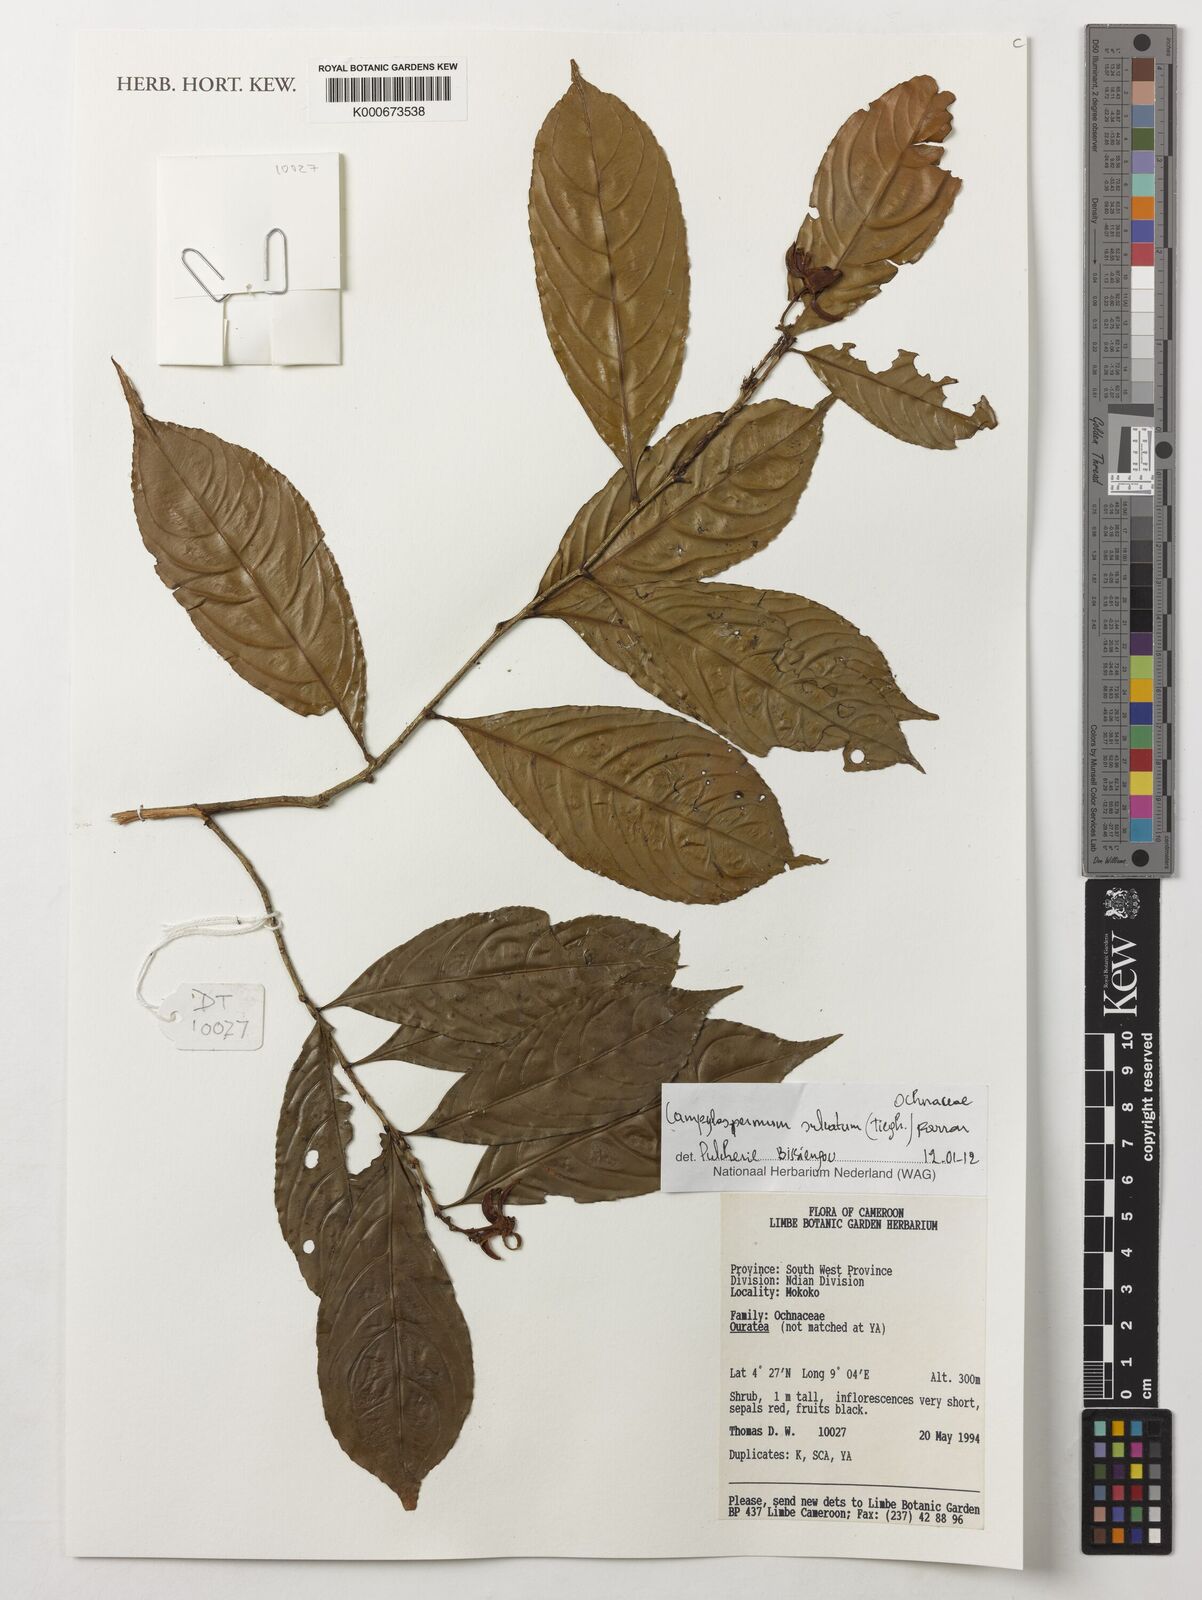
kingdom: Plantae
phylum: Tracheophyta
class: Magnoliopsida
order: Malpighiales
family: Ochnaceae
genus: Campylospermum
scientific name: Campylospermum sulcatum
